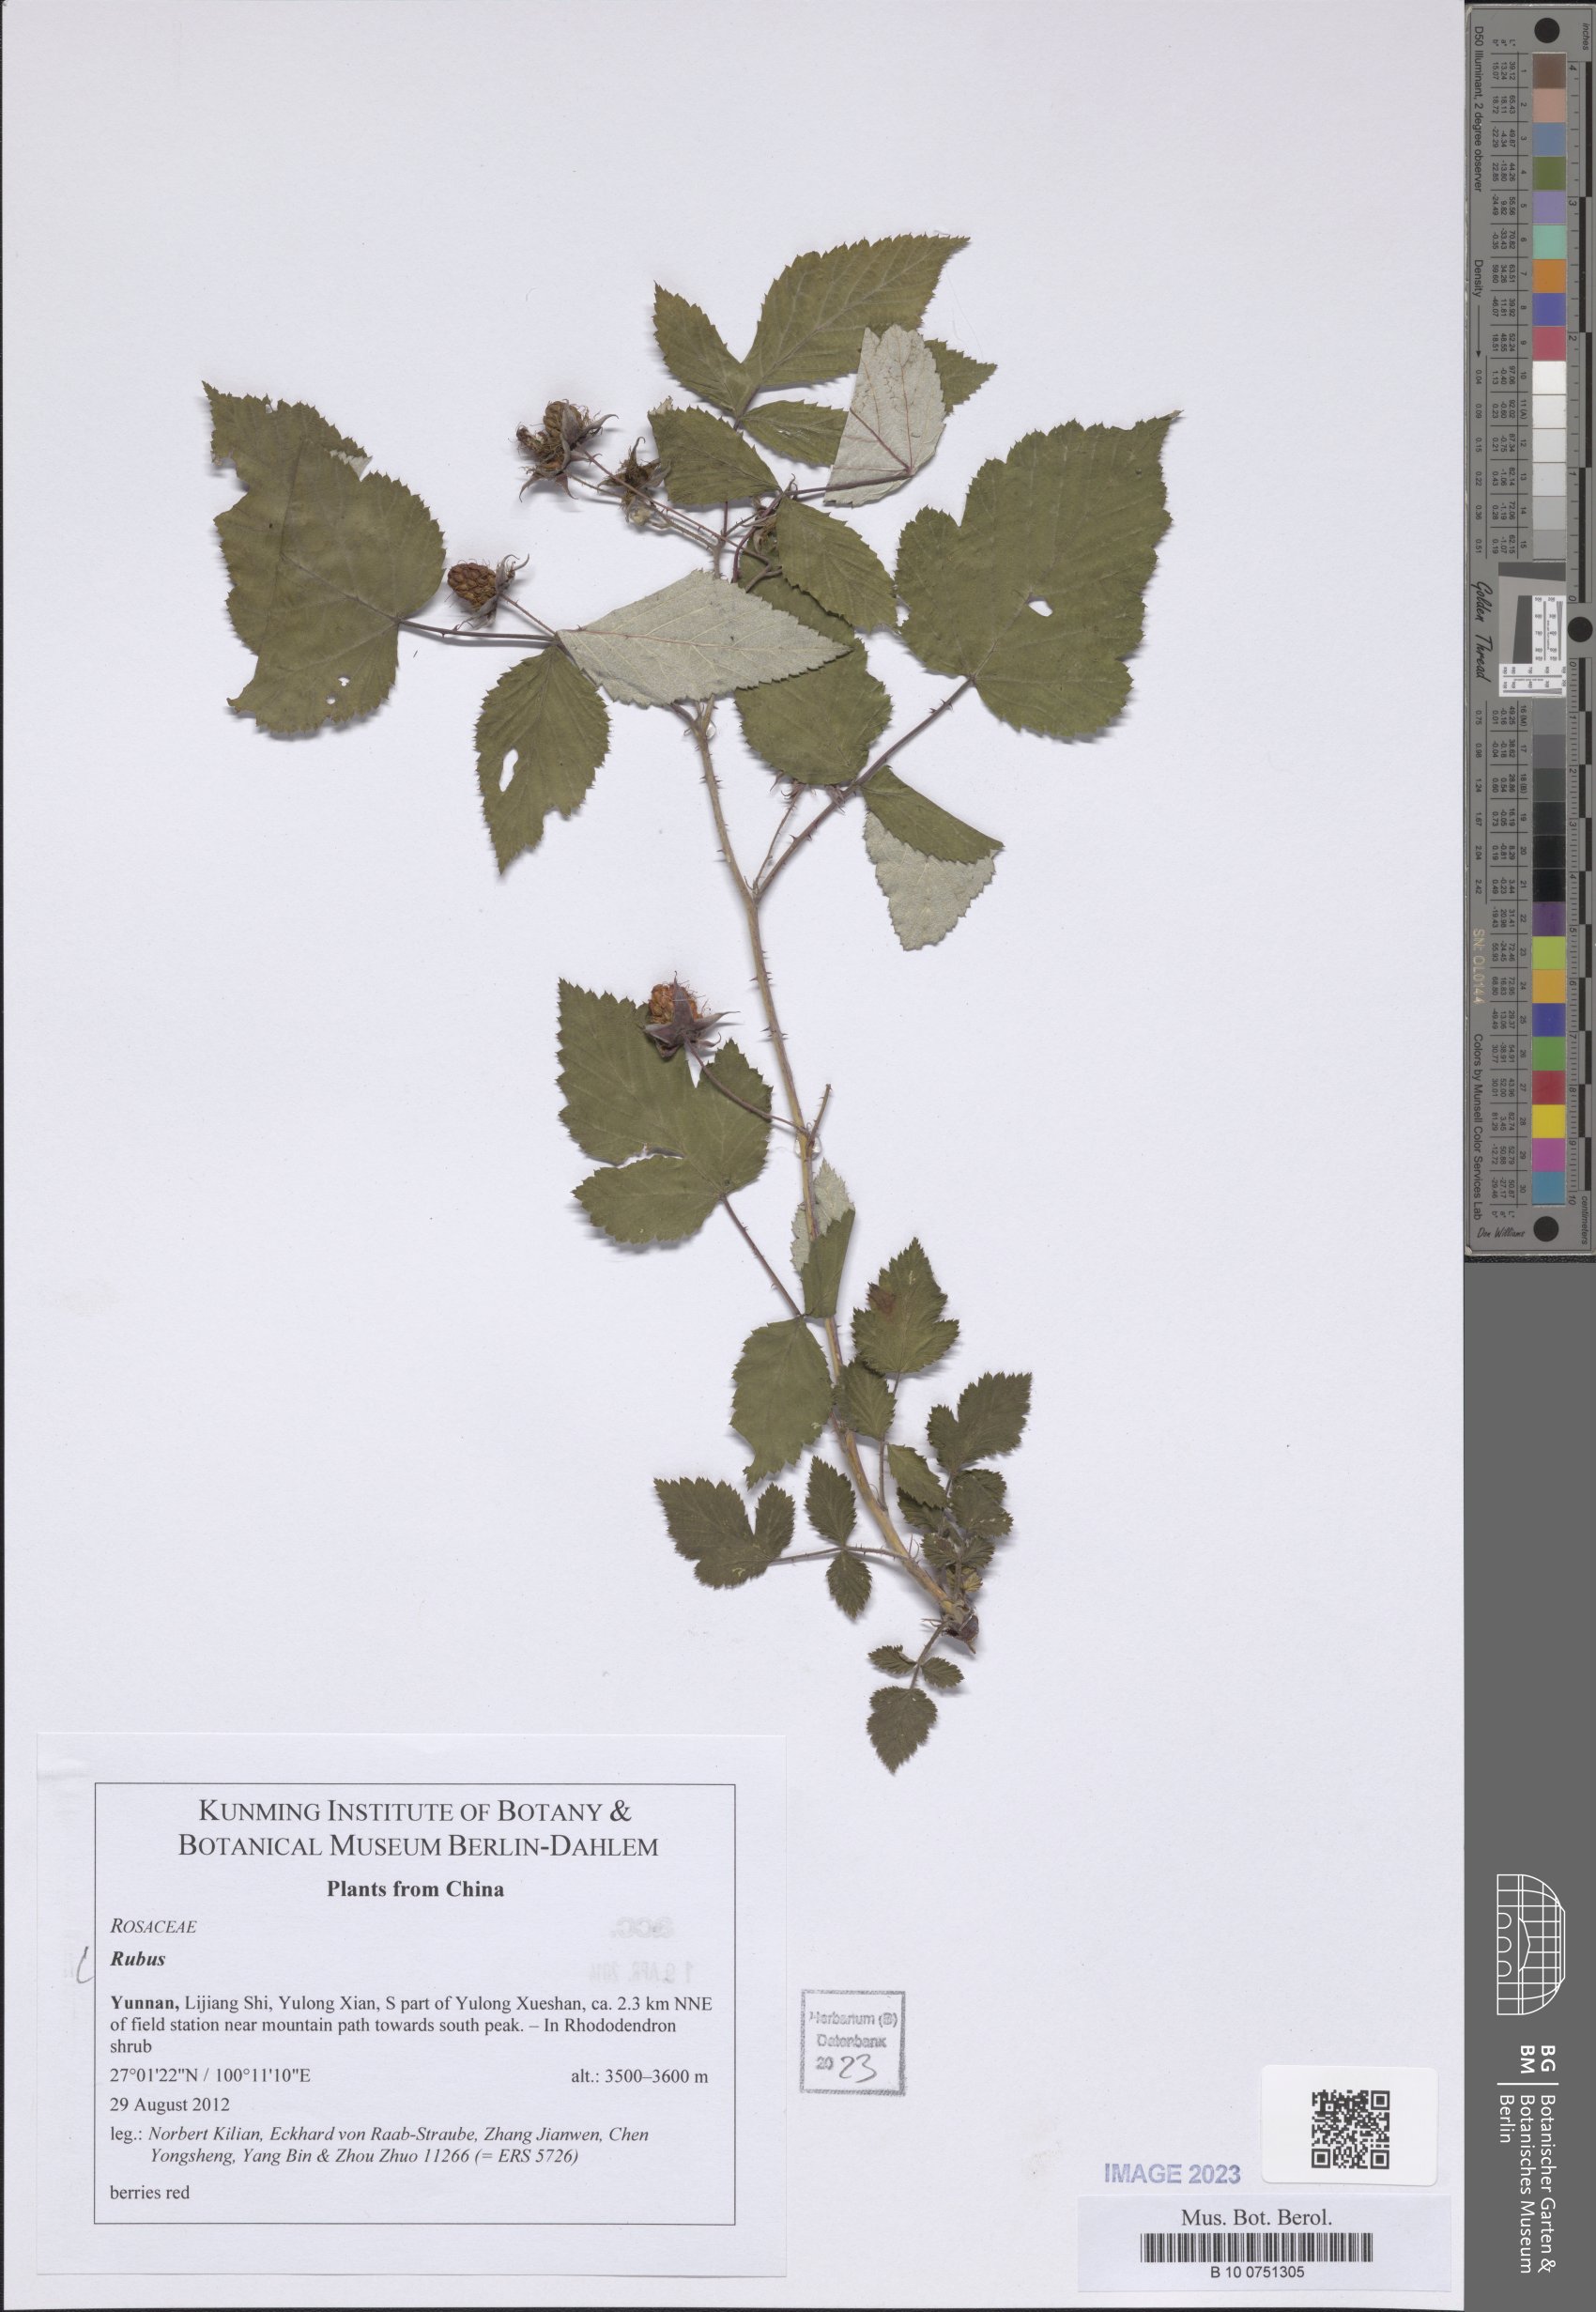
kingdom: Plantae
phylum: Tracheophyta
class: Magnoliopsida
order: Rosales
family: Rosaceae
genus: Rubus
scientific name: Rubus
